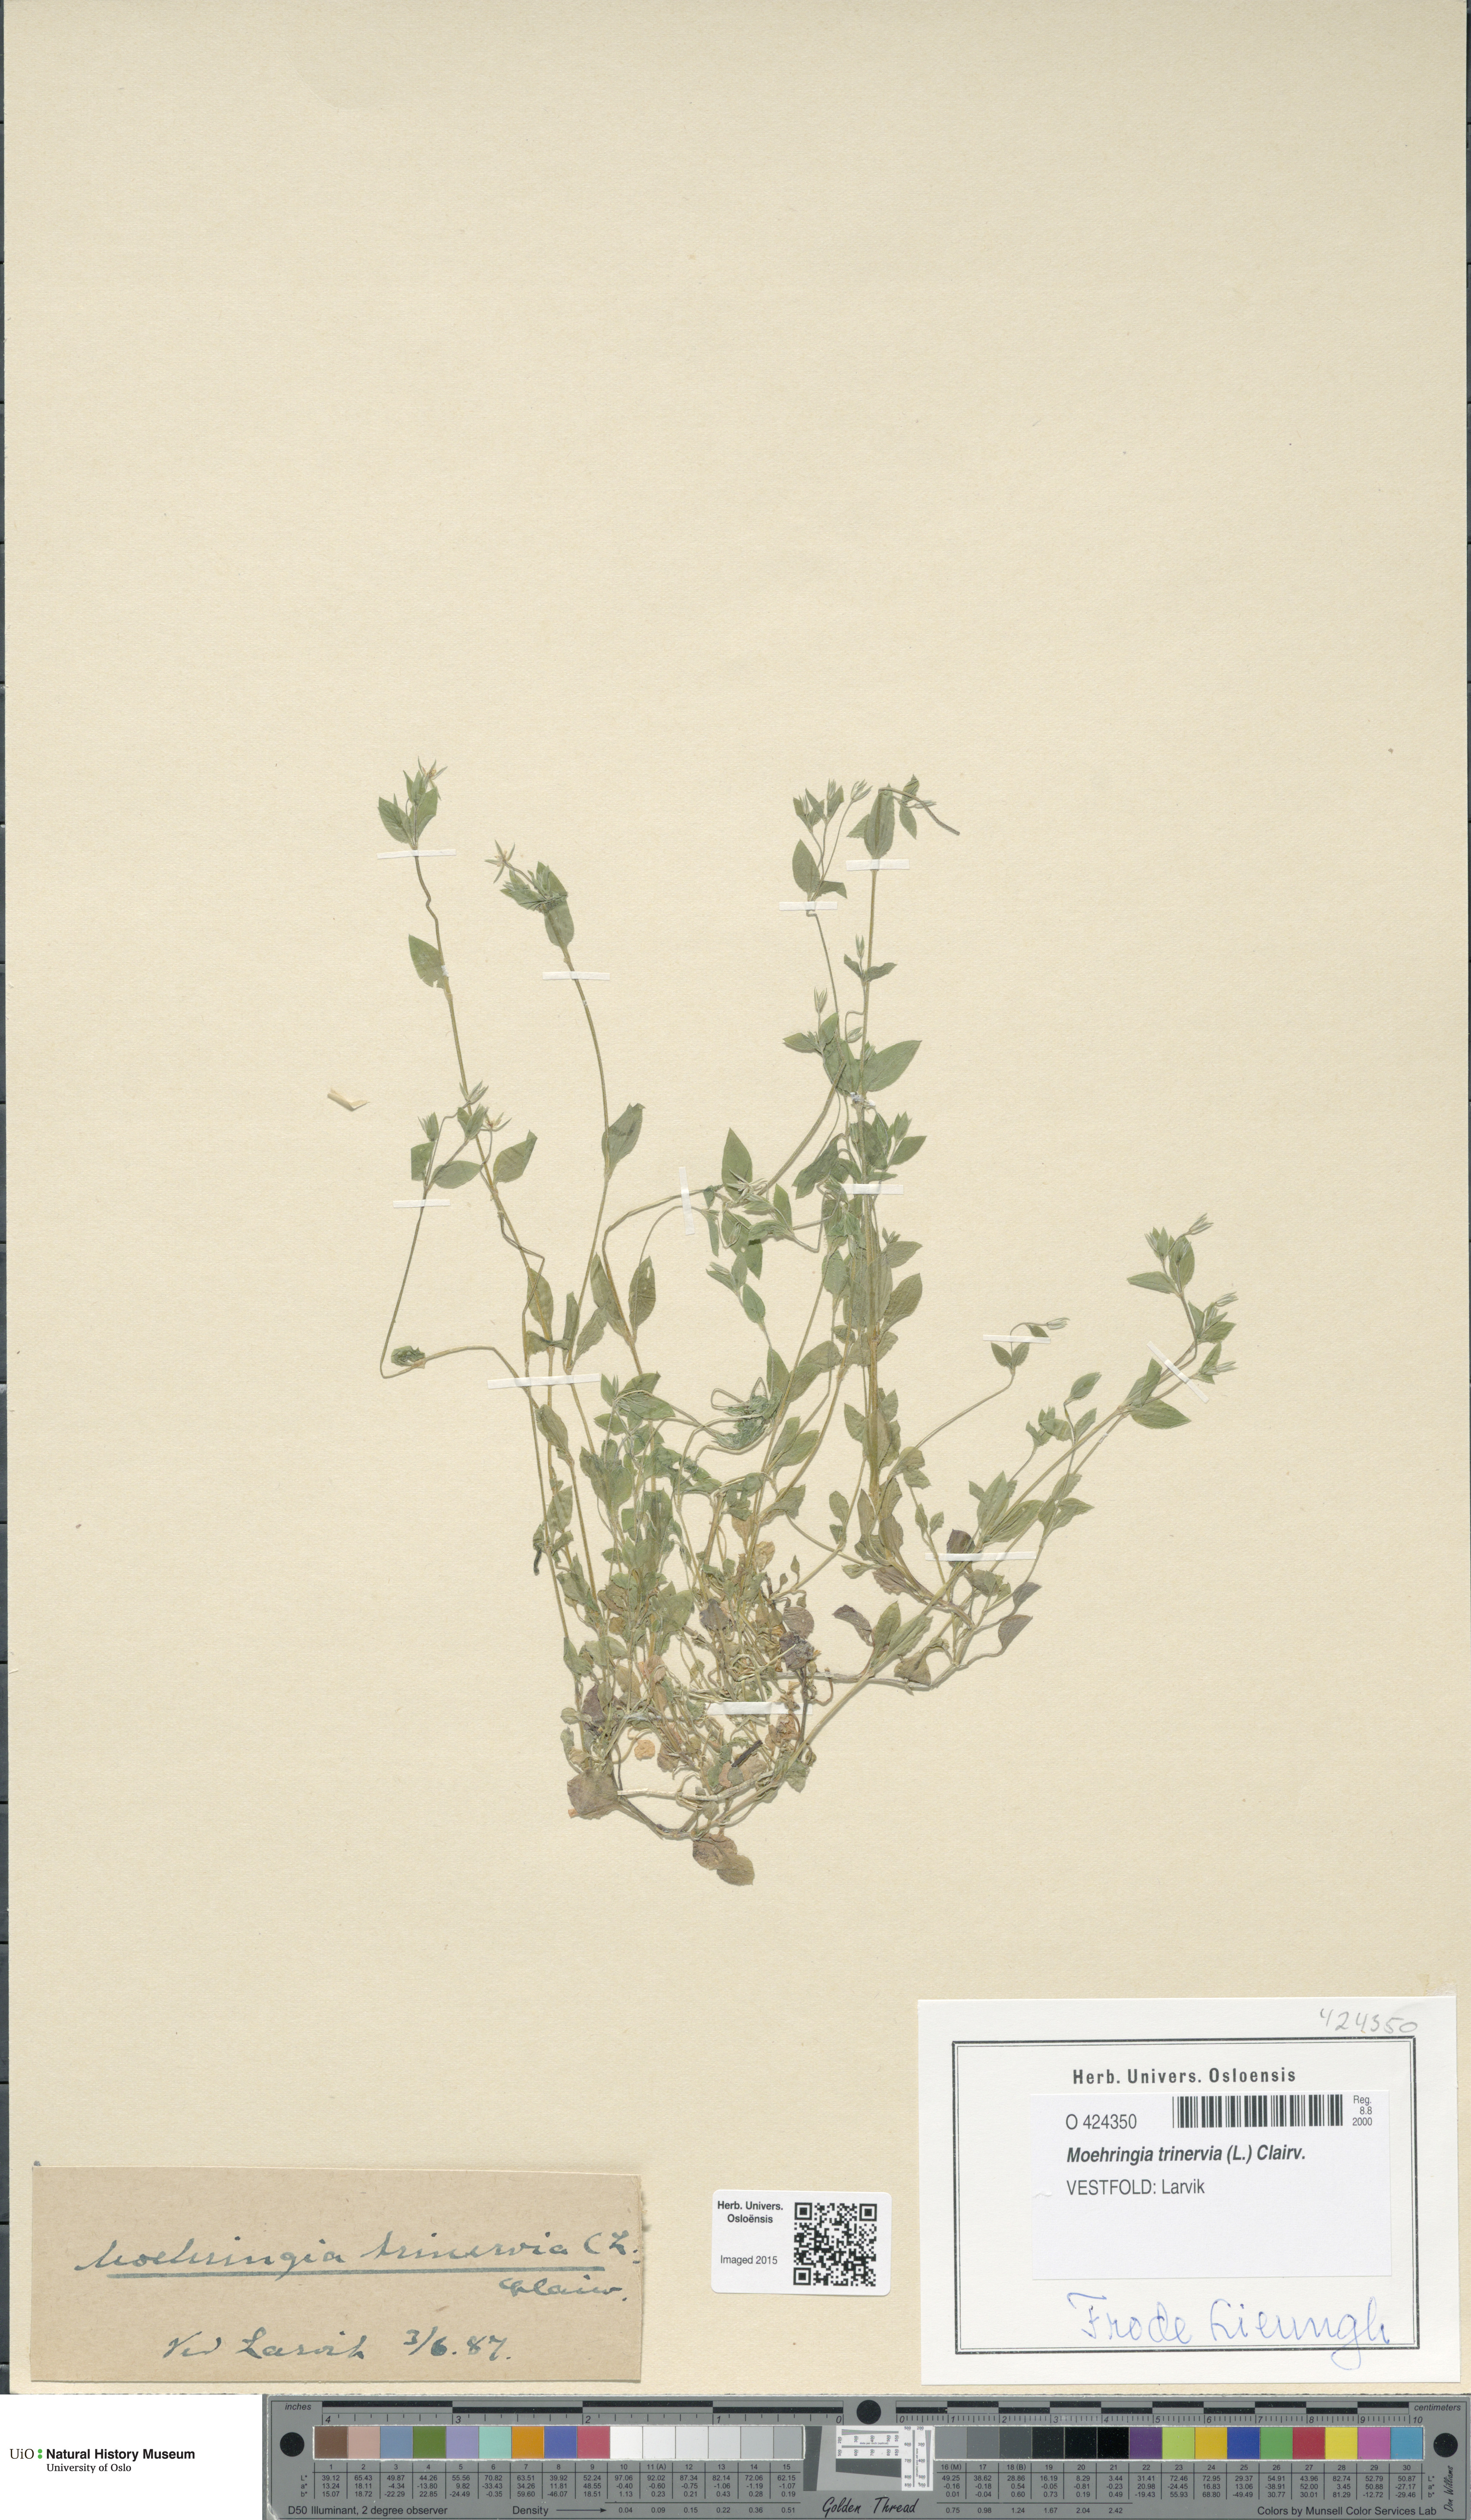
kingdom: Plantae
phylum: Tracheophyta
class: Magnoliopsida
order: Caryophyllales
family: Caryophyllaceae
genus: Moehringia
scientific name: Moehringia trinervia
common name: Three-nerved sandwort
